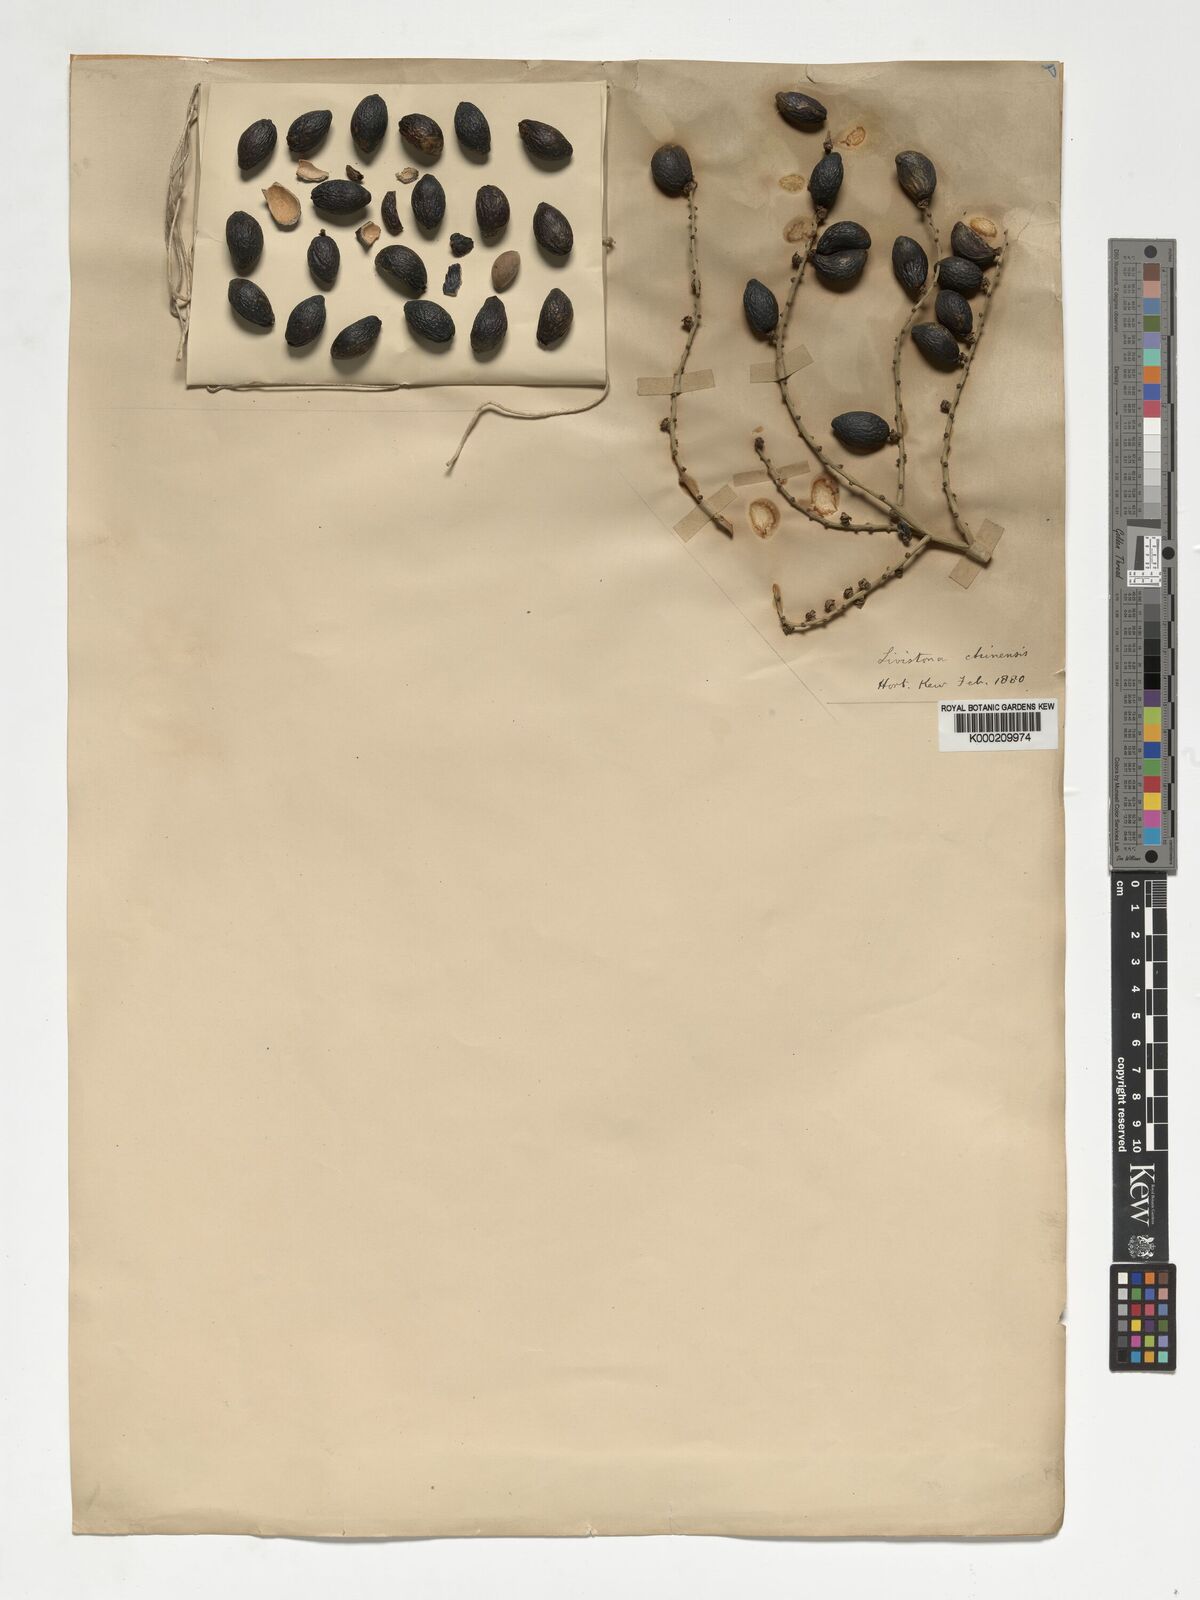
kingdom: Plantae
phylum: Tracheophyta
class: Liliopsida
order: Arecales
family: Arecaceae
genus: Livistona
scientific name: Livistona chinensis
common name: Fountain palm
